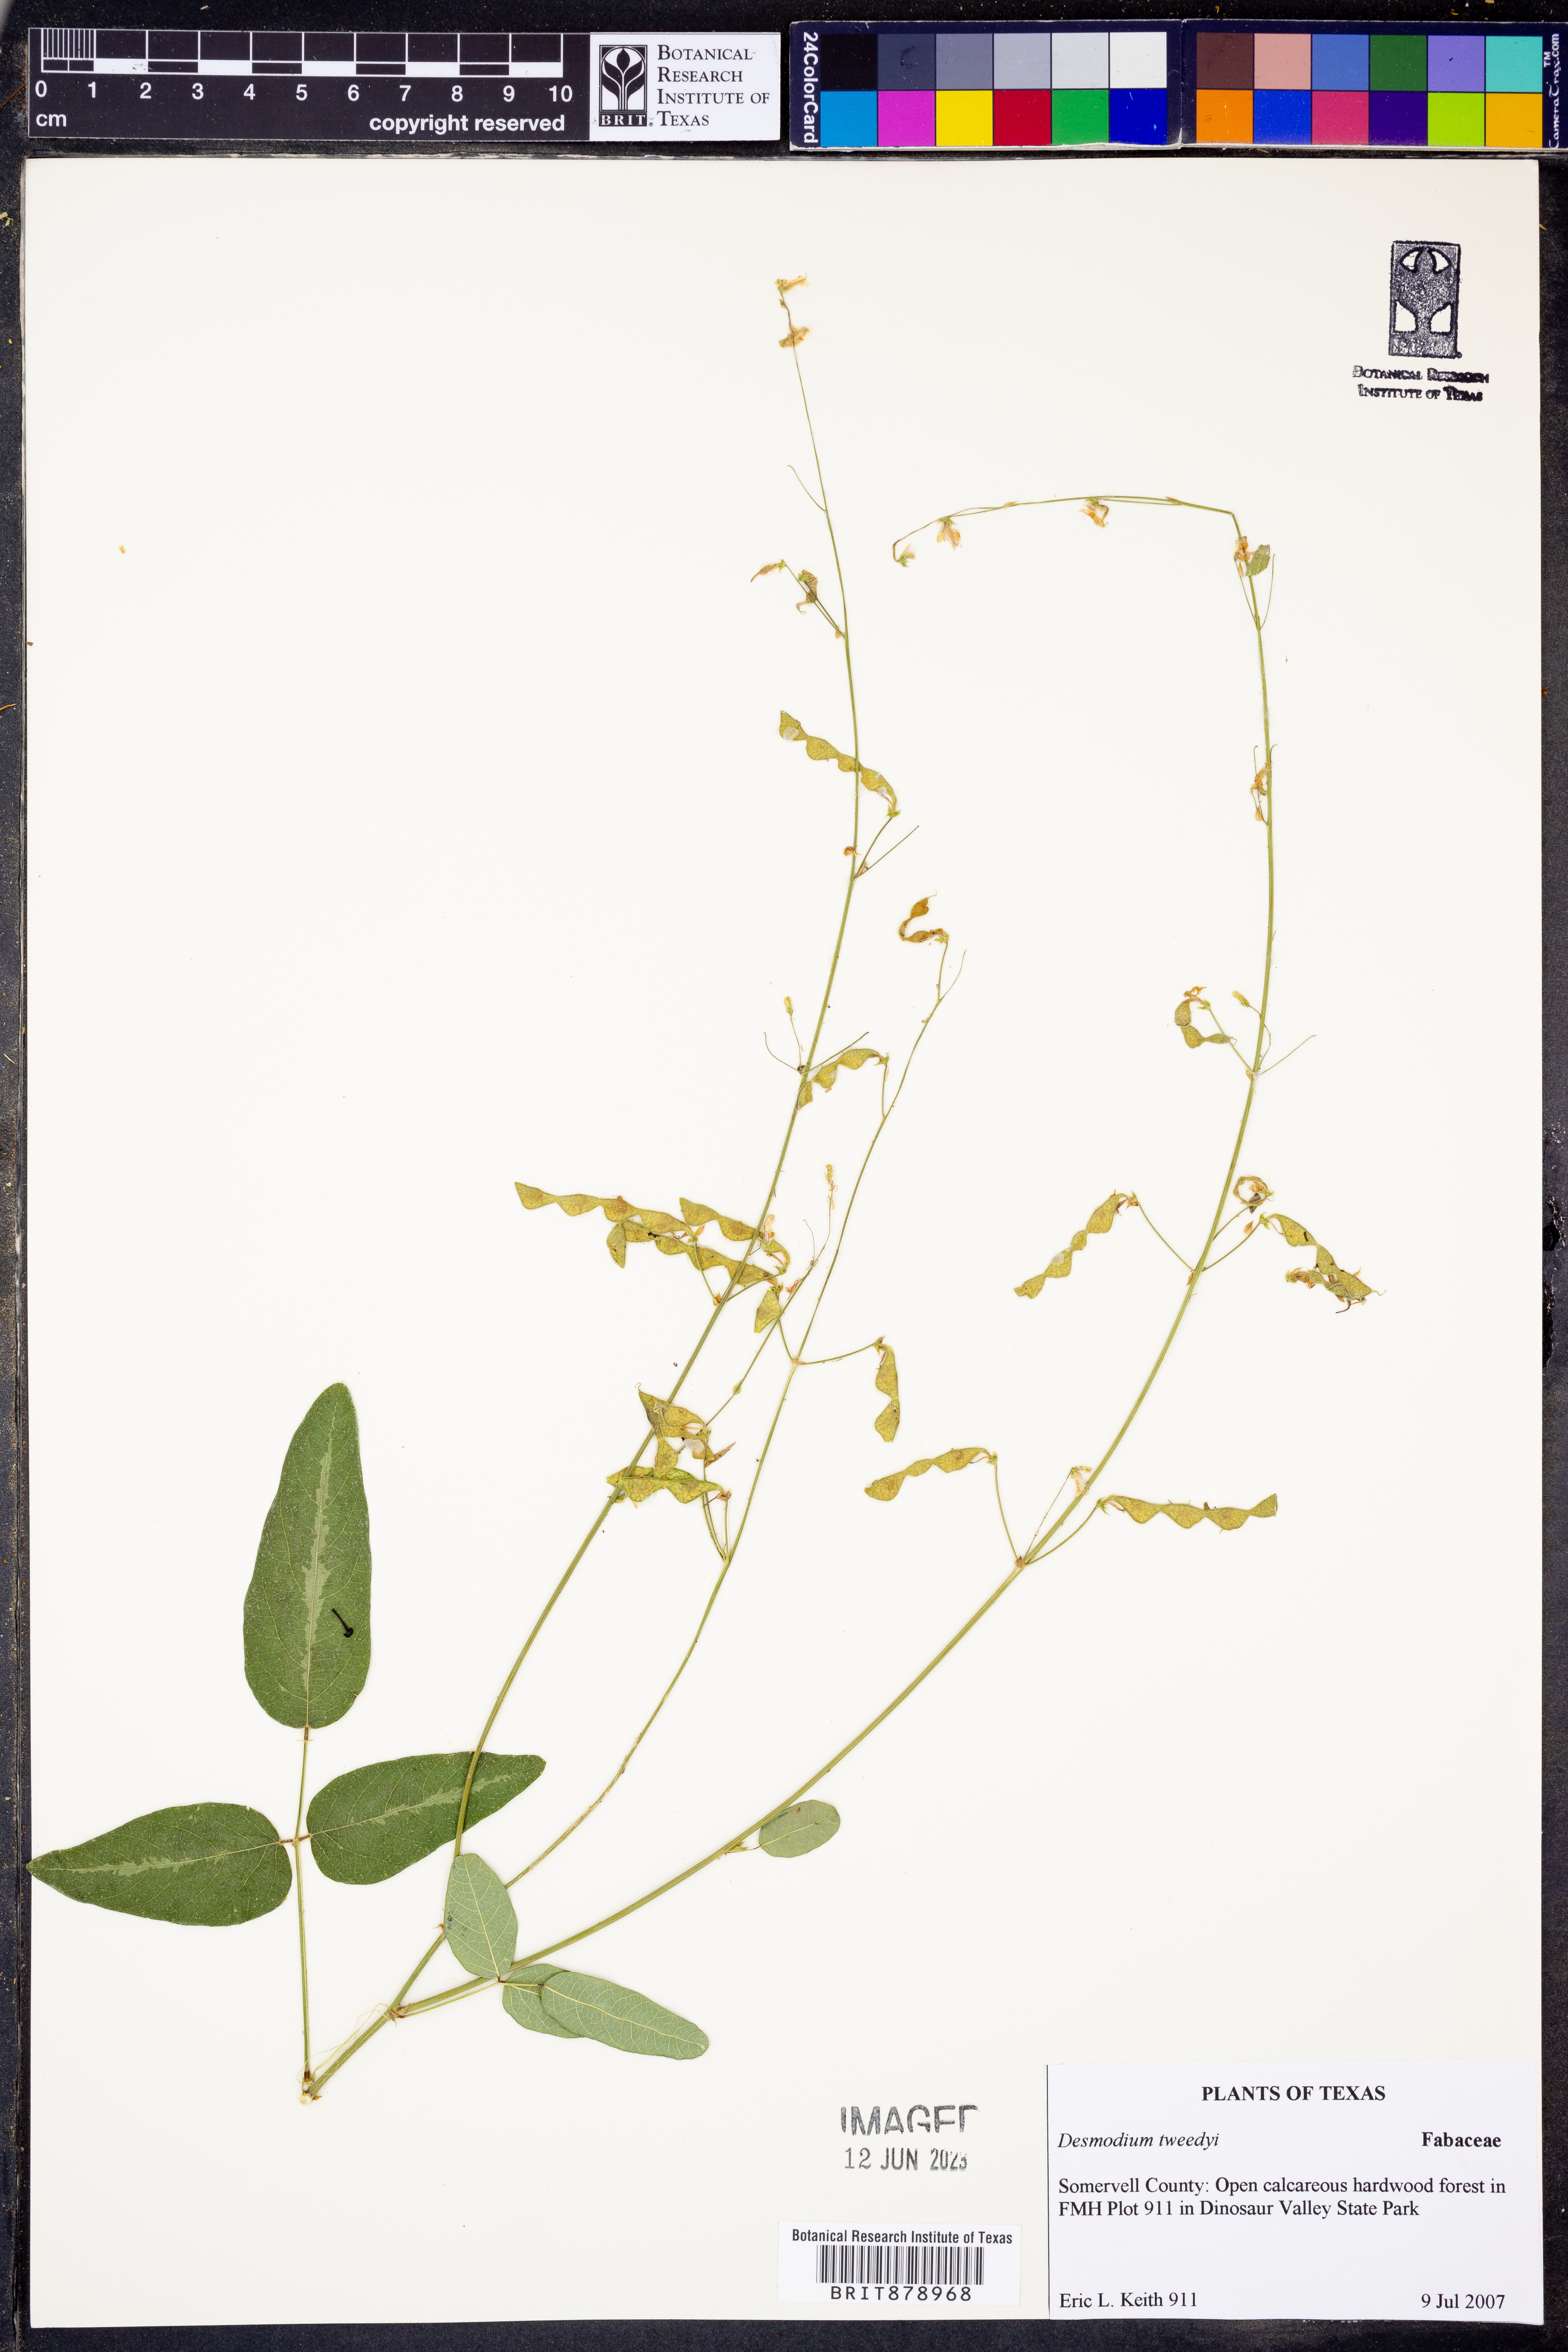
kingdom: Plantae
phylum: Tracheophyta
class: Magnoliopsida
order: Fabales
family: Fabaceae
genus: Desmodium
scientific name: Desmodium tweedyi
